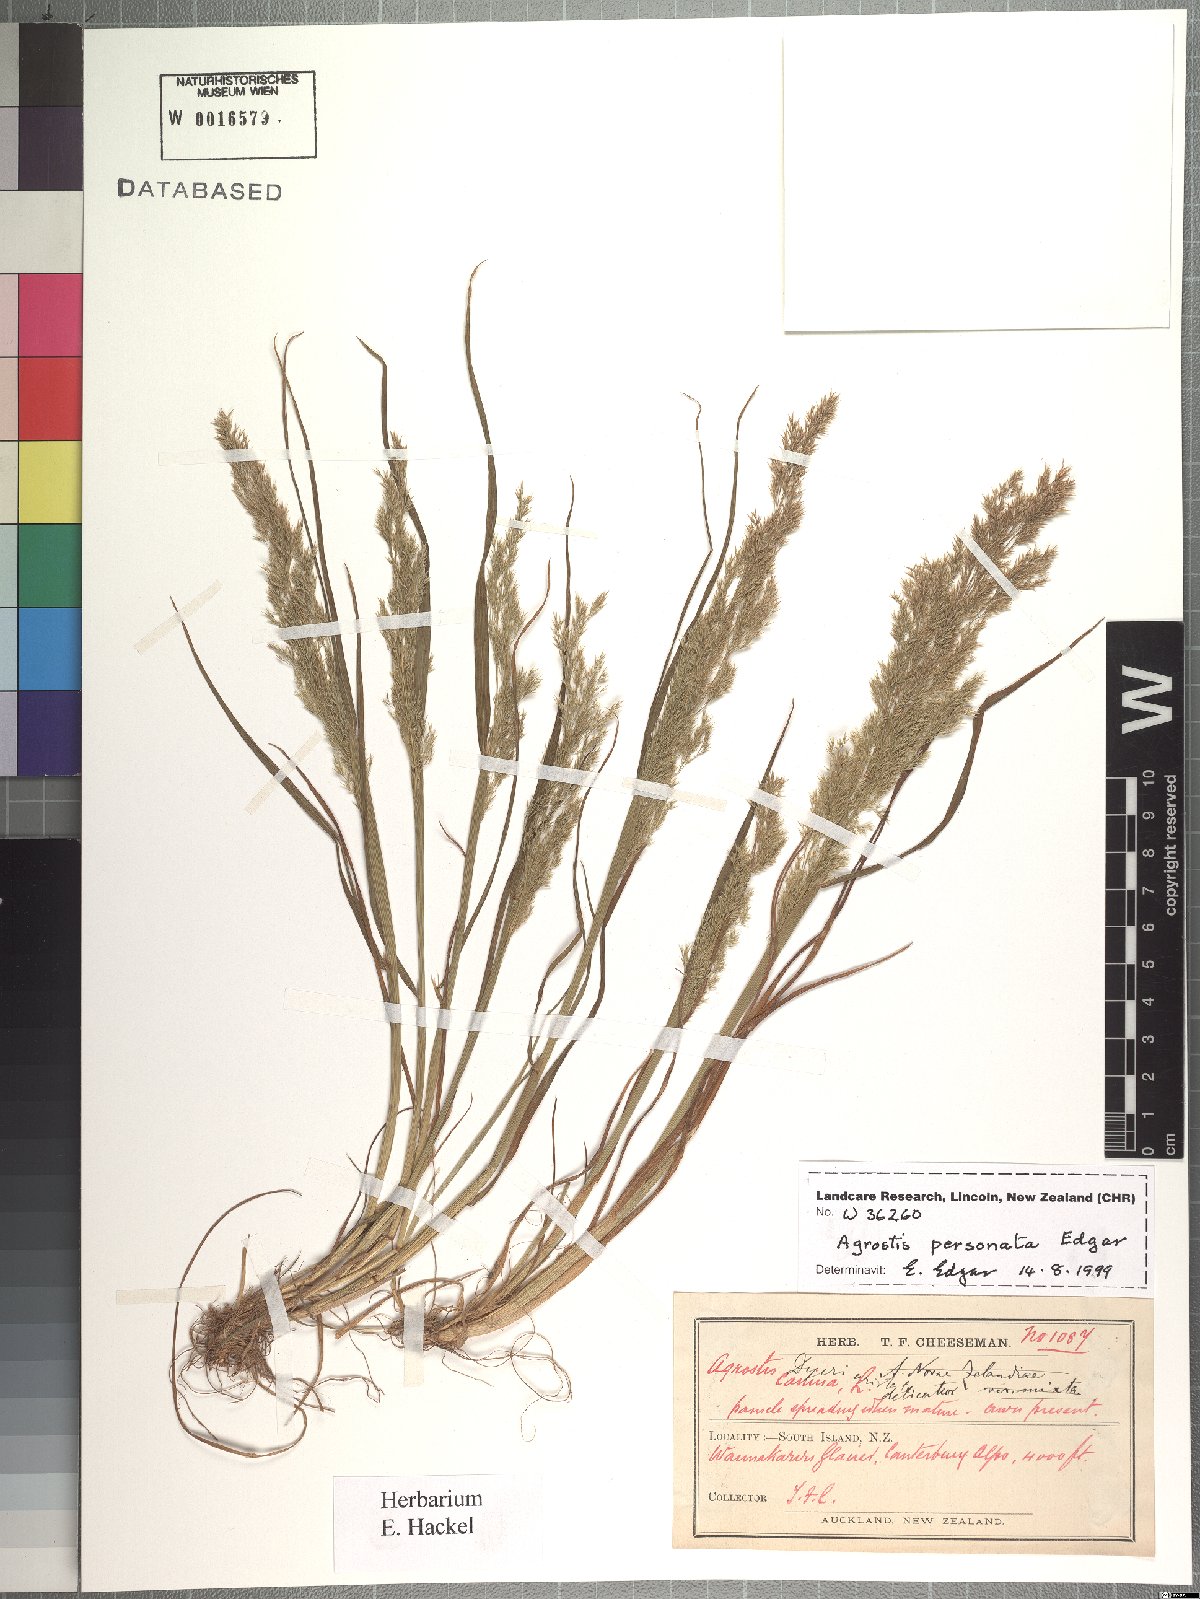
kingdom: Plantae
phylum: Tracheophyta
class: Liliopsida
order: Poales
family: Poaceae
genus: Agrostis
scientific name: Agrostis personata
